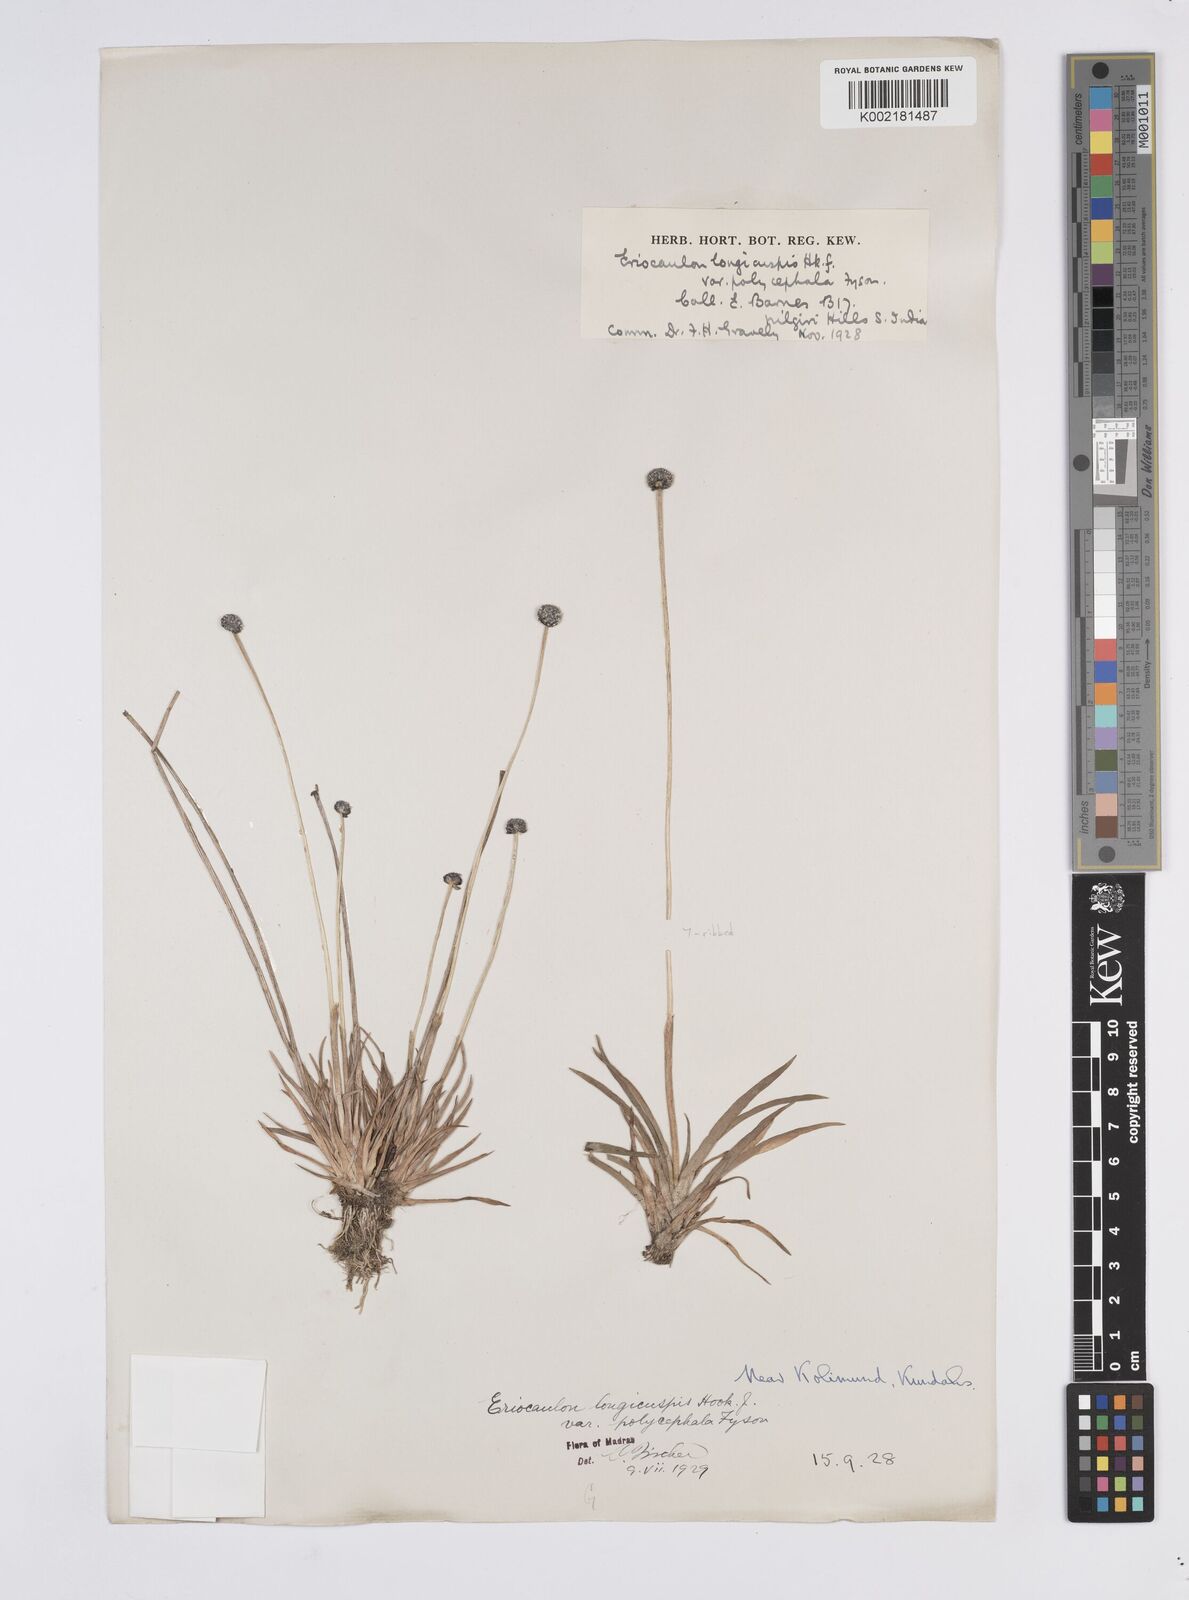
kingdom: Plantae
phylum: Tracheophyta
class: Liliopsida
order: Poales
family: Eriocaulaceae
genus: Eriocaulon
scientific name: Eriocaulon longicuspe
